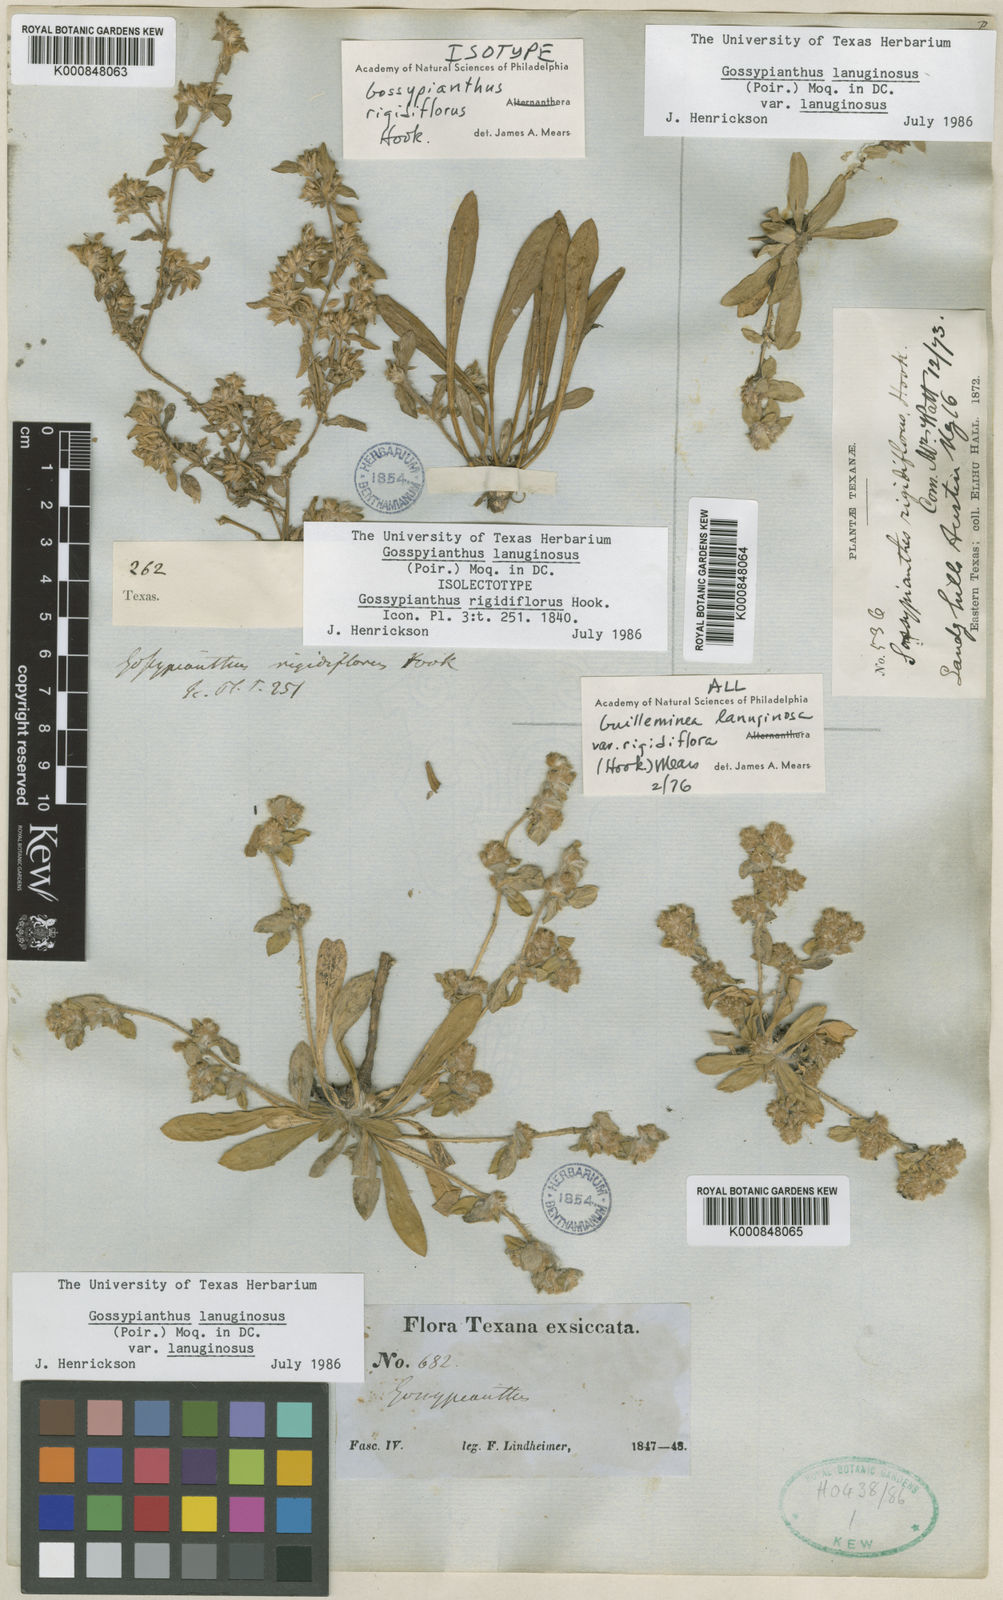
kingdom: Plantae
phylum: Tracheophyta
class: Magnoliopsida
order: Caryophyllales
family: Amaranthaceae
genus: Gomphrena
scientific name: Gomphrena lanuparonychioides
